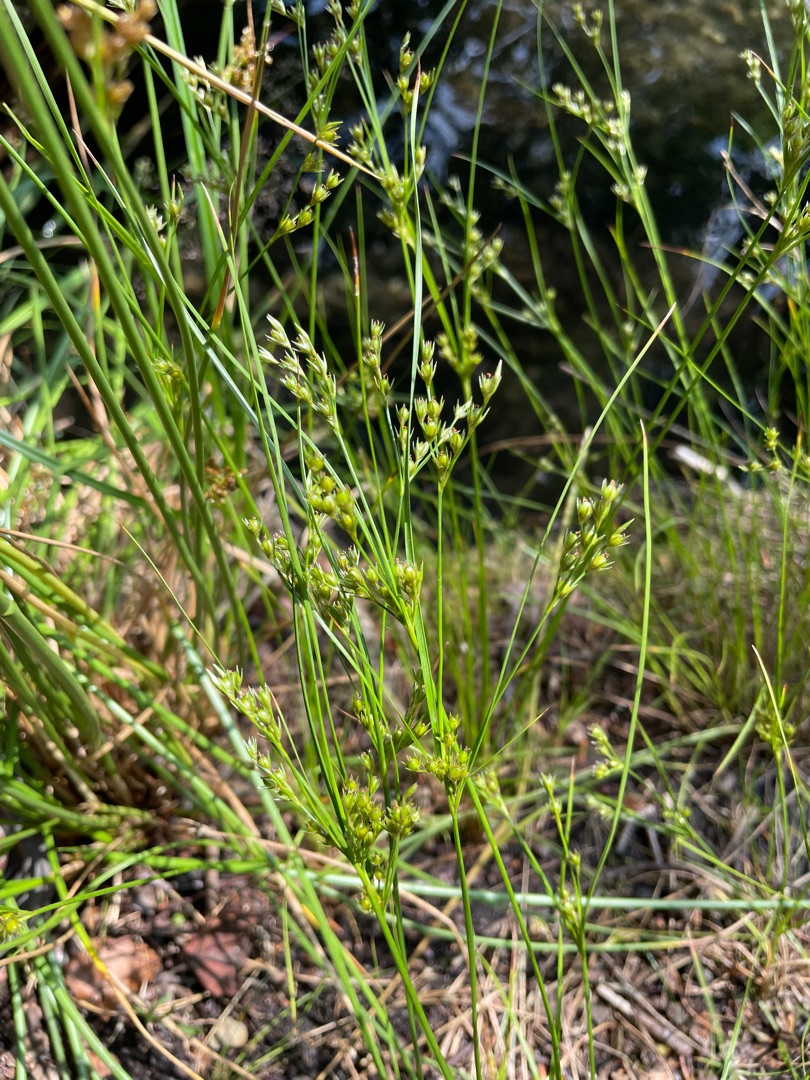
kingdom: Plantae
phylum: Tracheophyta
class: Liliopsida
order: Poales
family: Juncaceae
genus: Juncus
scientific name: Juncus tenuis
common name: Tue-siv
